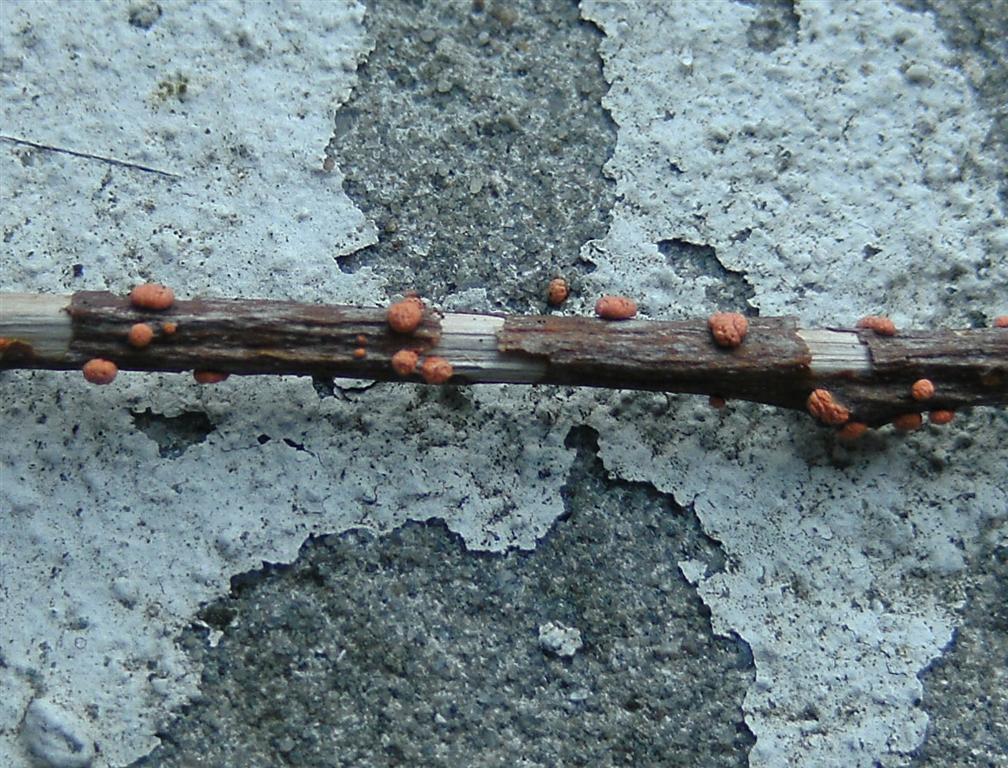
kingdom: Fungi
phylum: Ascomycota
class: Sordariomycetes
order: Hypocreales
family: Nectriaceae
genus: Nectria
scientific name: Nectria cinnabarina
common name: almindelig cinnobersvamp
